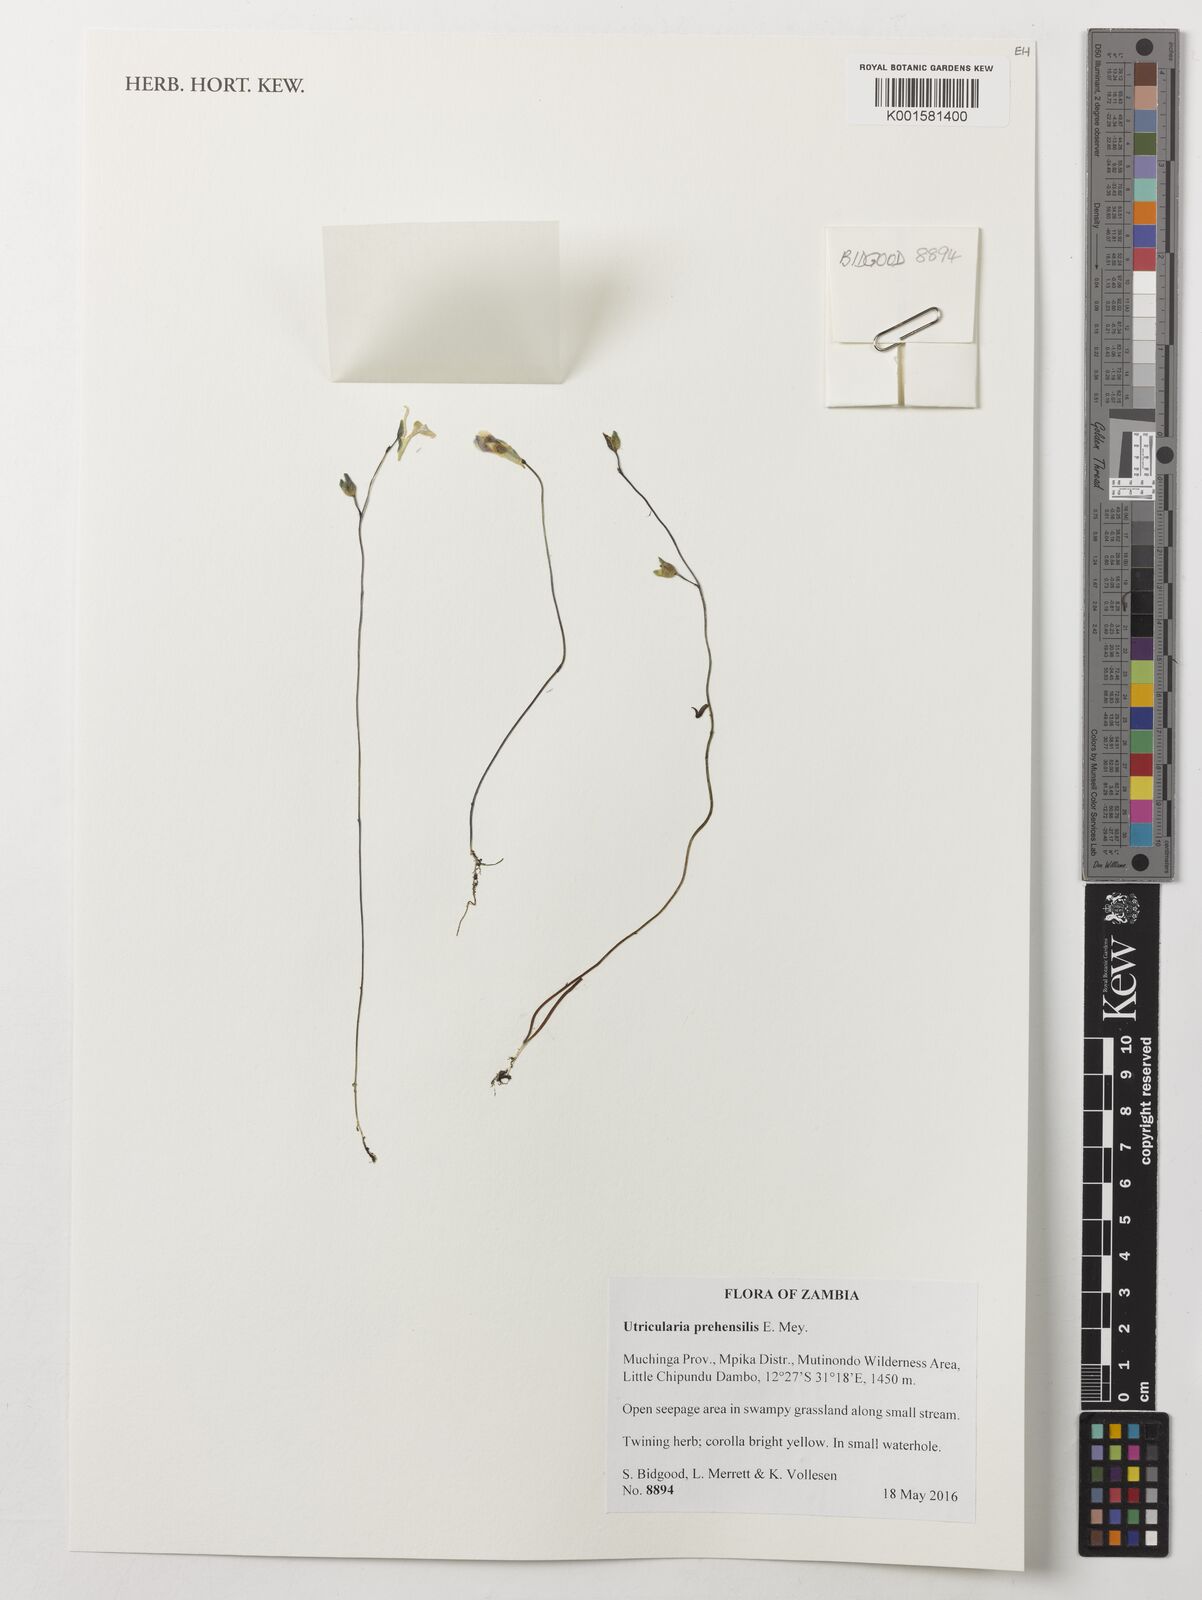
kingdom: Plantae
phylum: Tracheophyta
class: Magnoliopsida
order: Lamiales
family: Lentibulariaceae
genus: Utricularia
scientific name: Utricularia prehensilis
